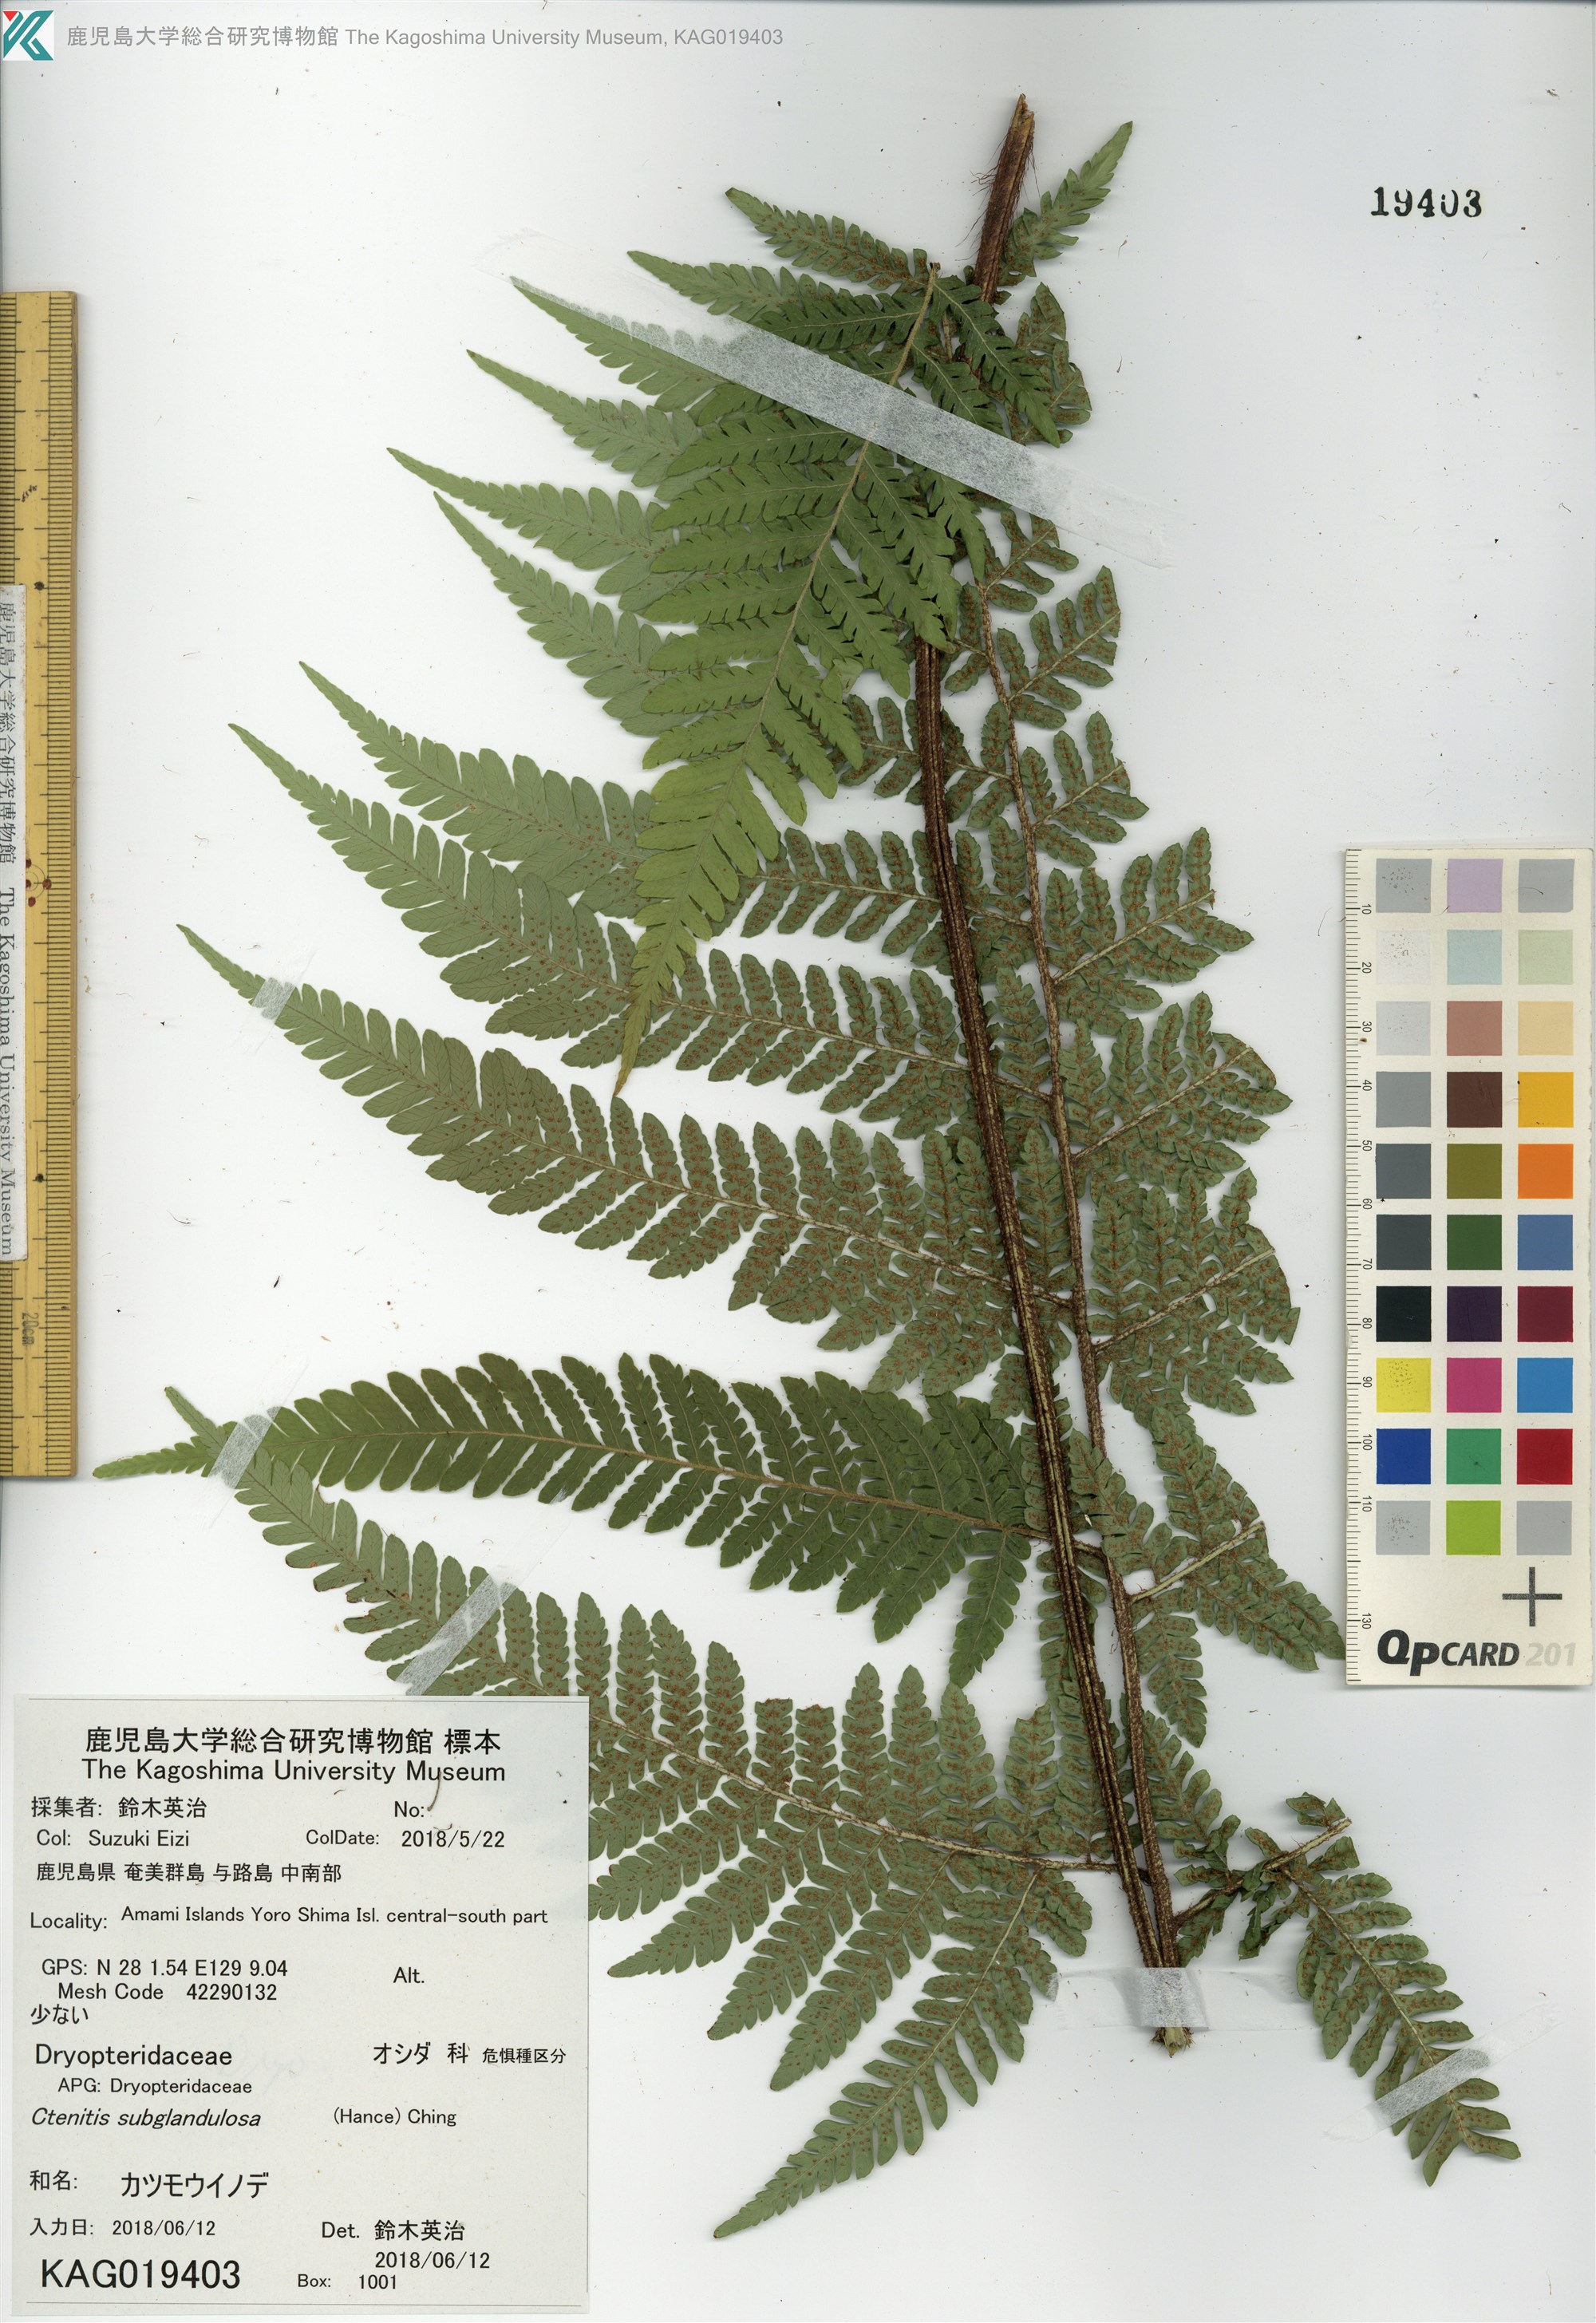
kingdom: Plantae
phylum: Tracheophyta
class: Polypodiopsida
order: Polypodiales
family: Dryopteridaceae
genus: Ctenitis
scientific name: Ctenitis subglandulosa
